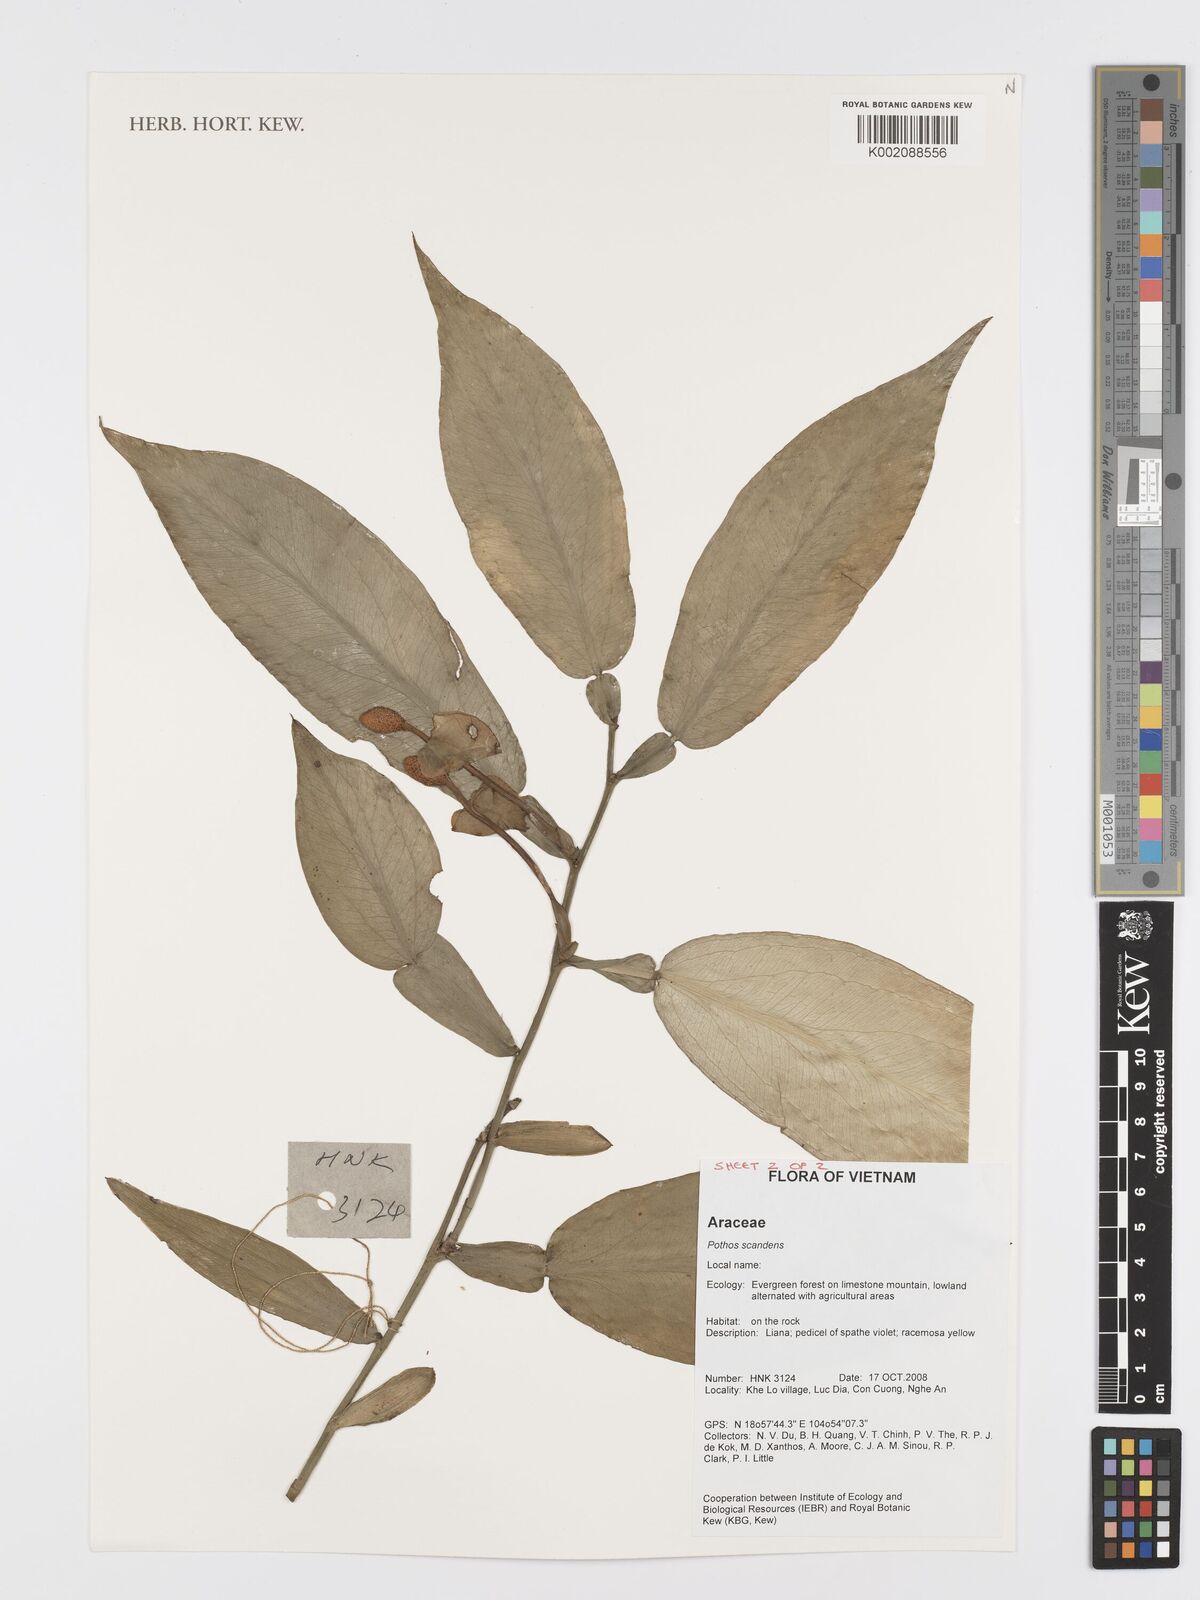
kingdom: Plantae
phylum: Tracheophyta
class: Liliopsida
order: Alismatales
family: Araceae
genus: Pothos
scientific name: Pothos scandens
